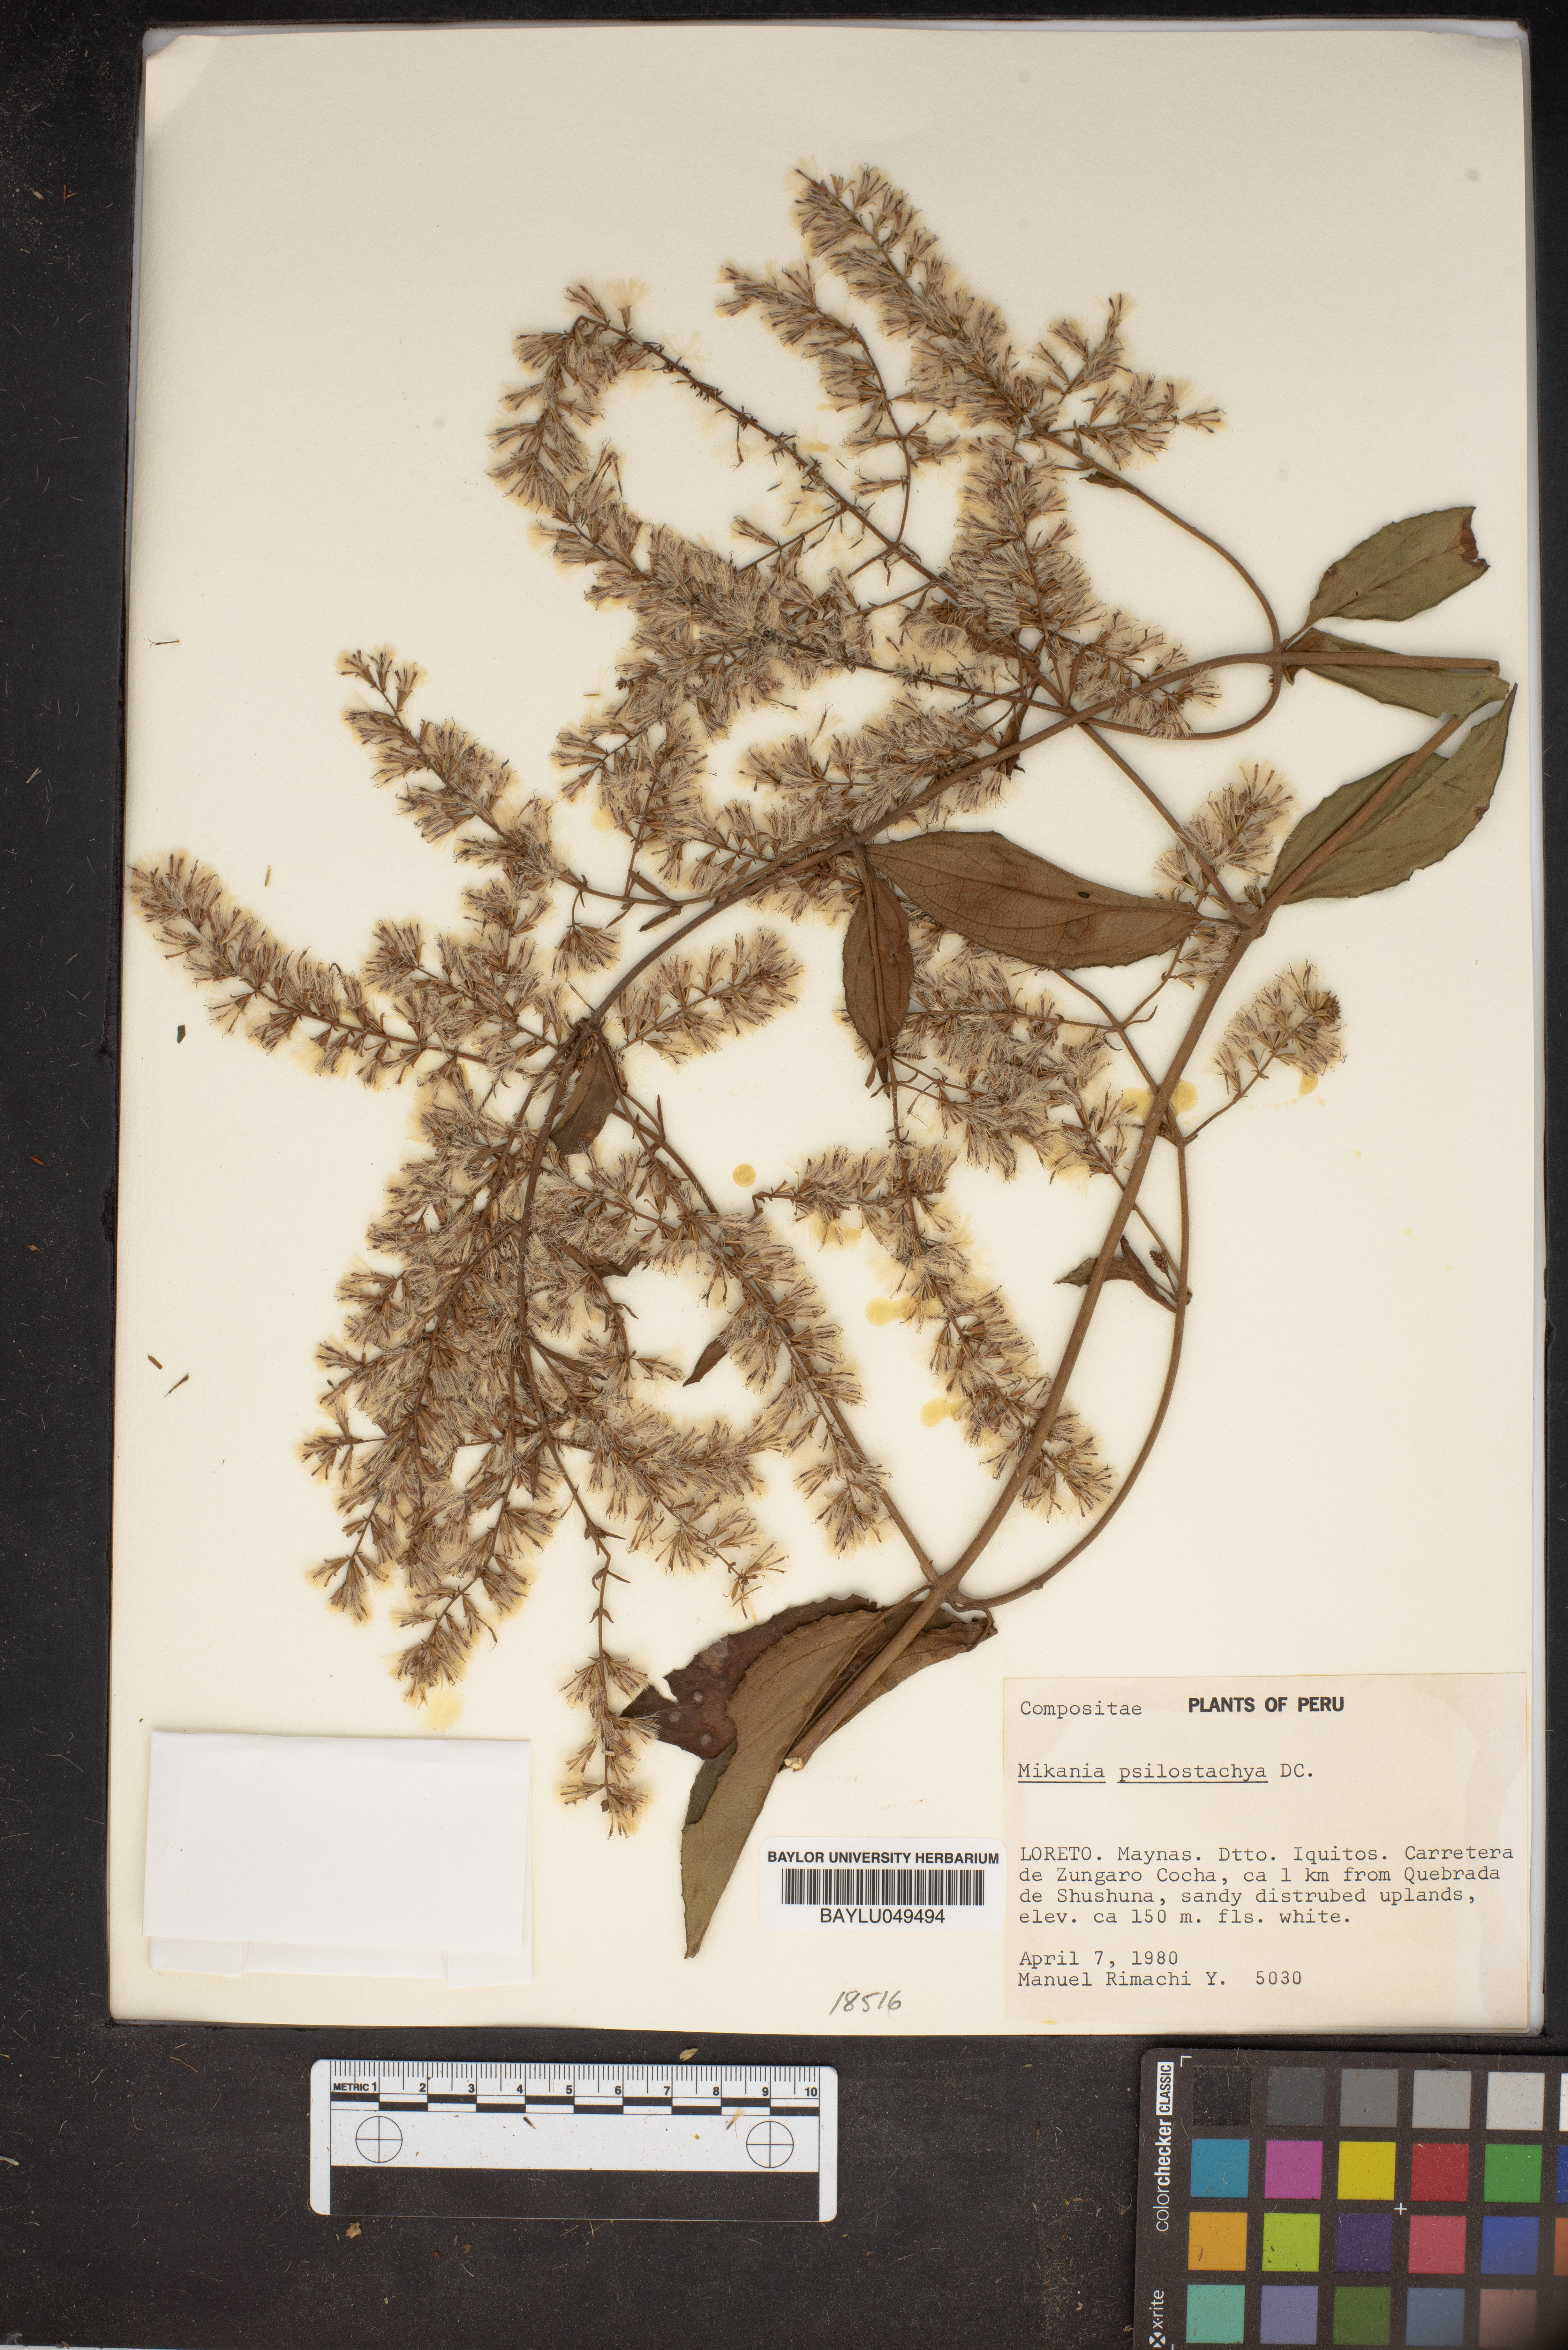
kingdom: Plantae
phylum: Tracheophyta
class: Magnoliopsida
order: Asterales
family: Asteraceae
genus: Mikania
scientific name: Mikania psilostachya
